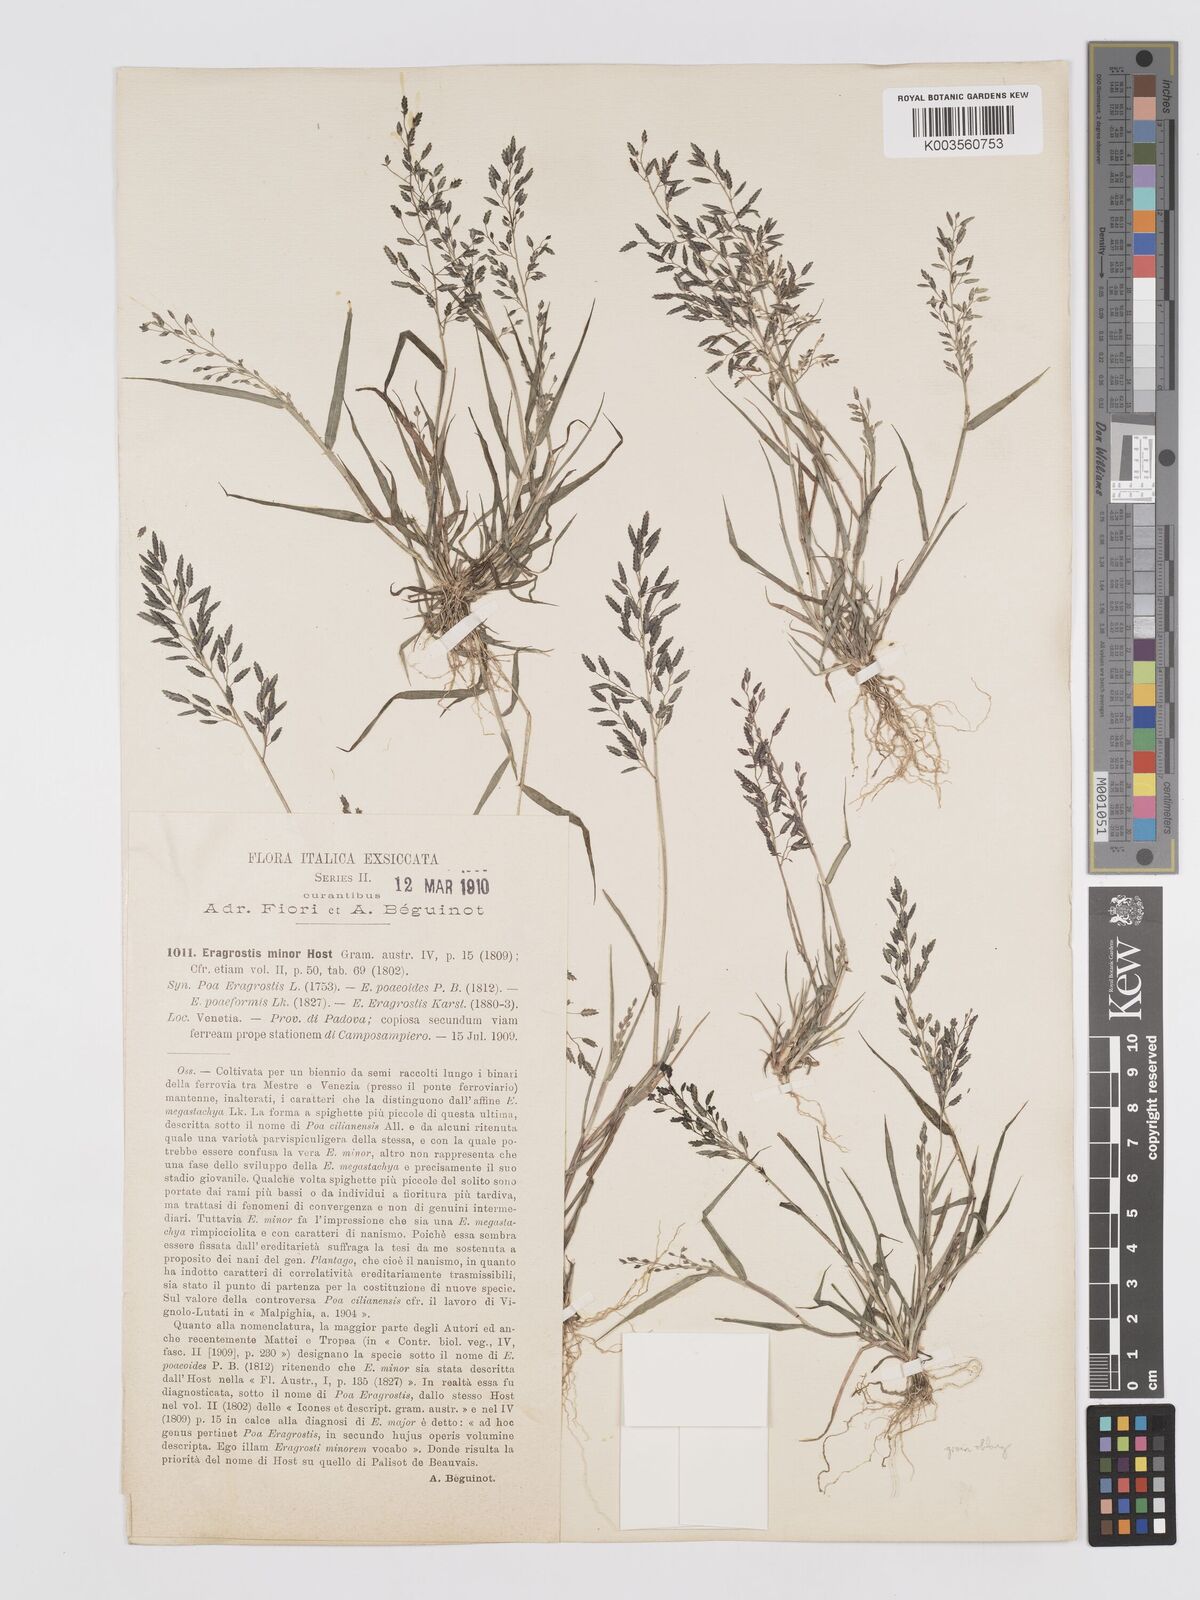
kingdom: Plantae
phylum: Tracheophyta
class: Liliopsida
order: Poales
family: Poaceae
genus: Eragrostis
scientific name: Eragrostis minor
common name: Small love-grass
